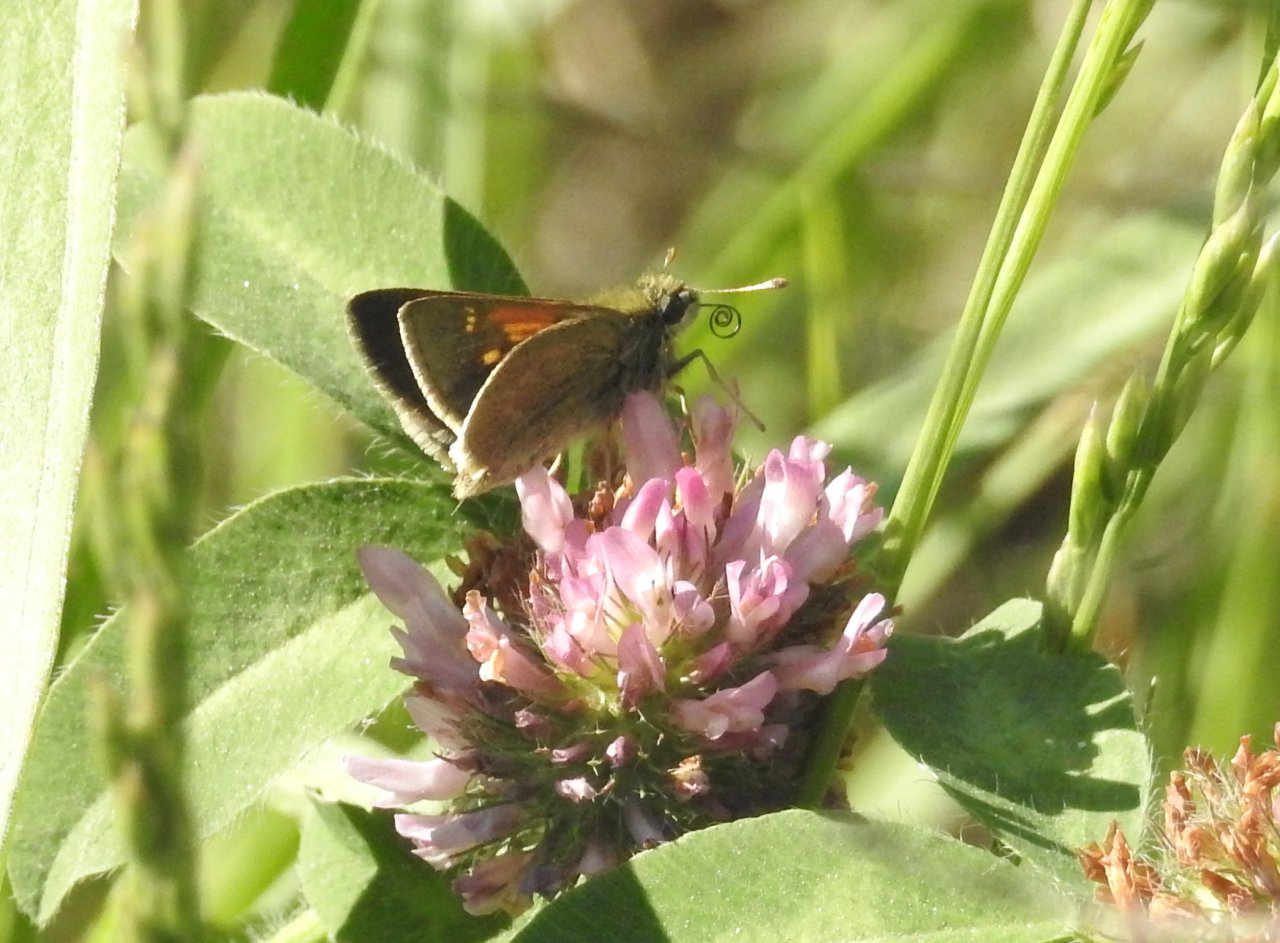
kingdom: Animalia
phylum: Arthropoda
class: Insecta
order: Lepidoptera
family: Hesperiidae
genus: Polites
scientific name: Polites themistocles
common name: Tawny-edged Skipper
